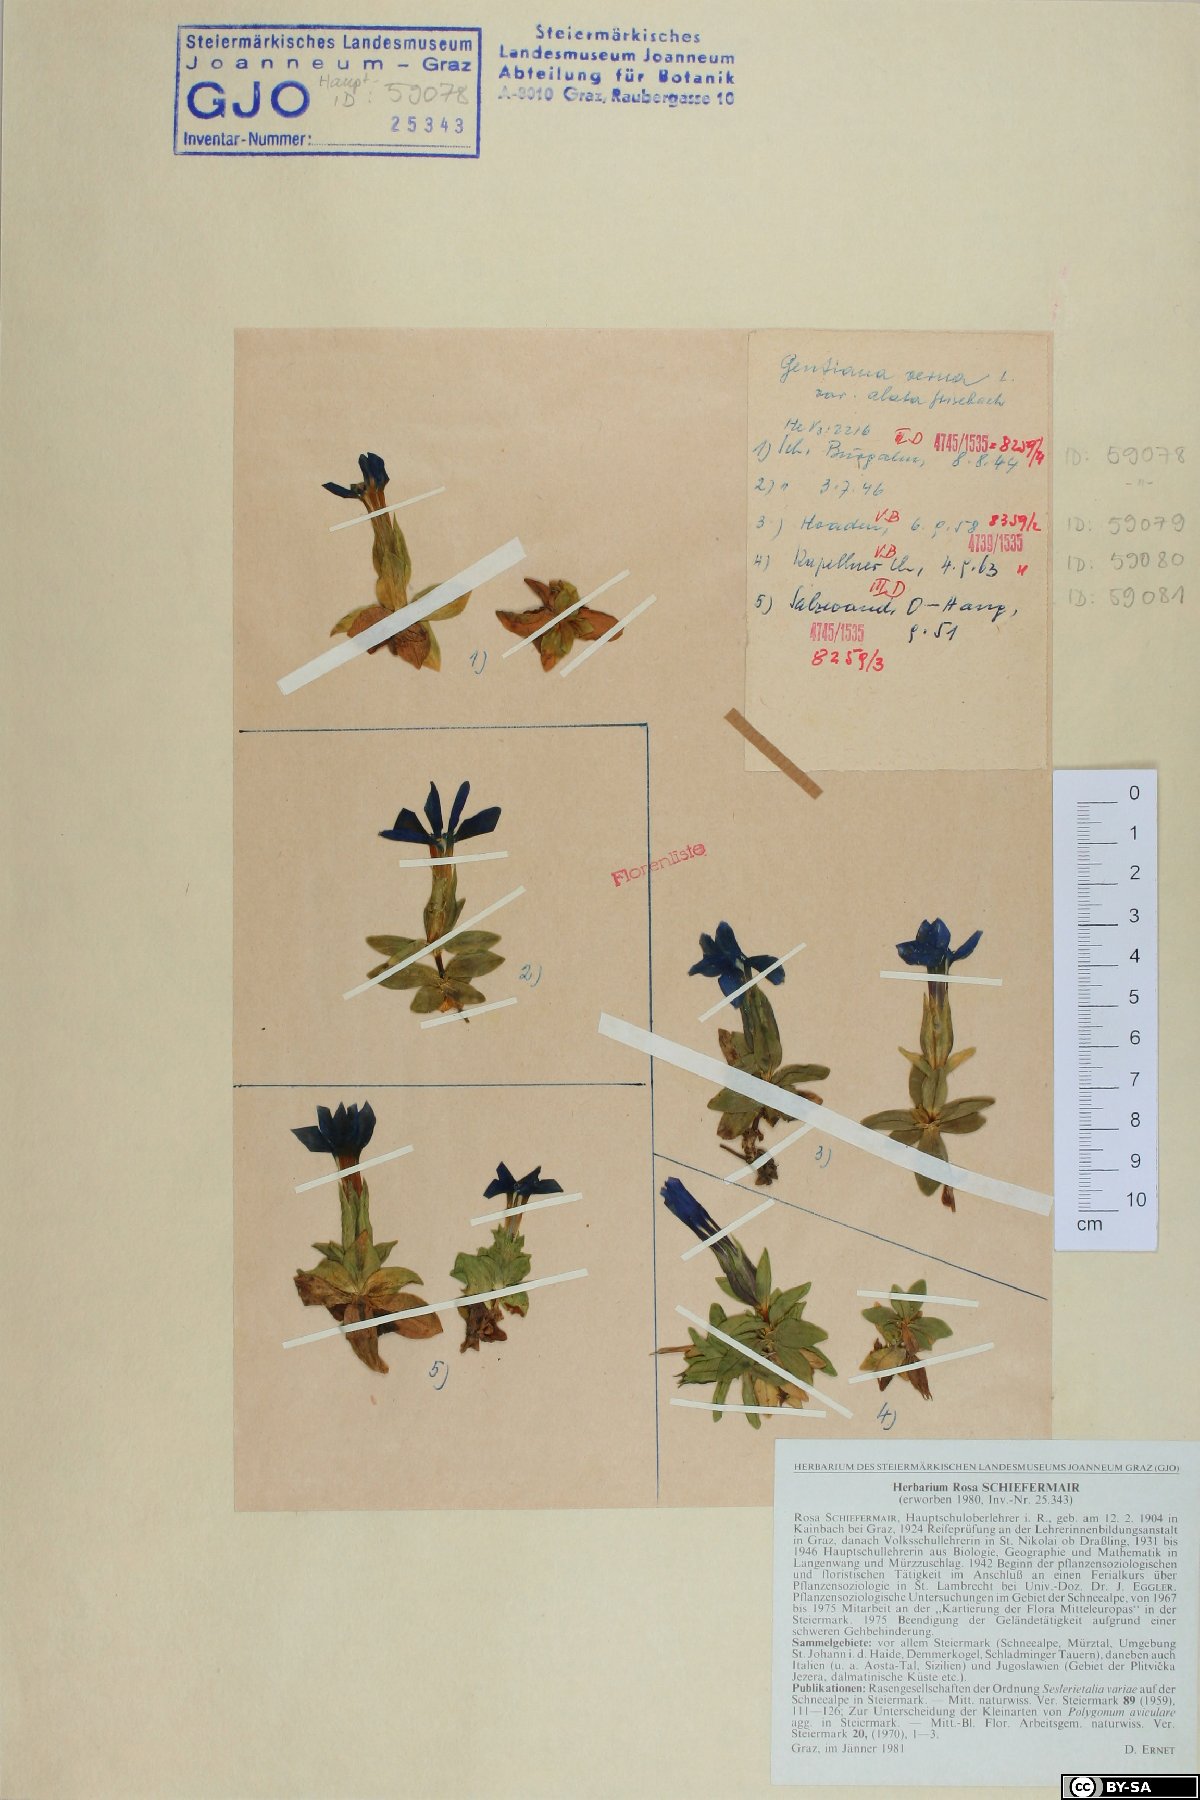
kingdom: Plantae
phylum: Tracheophyta
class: Magnoliopsida
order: Gentianales
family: Gentianaceae
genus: Gentiana
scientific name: Gentiana verna
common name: Spring gentian
